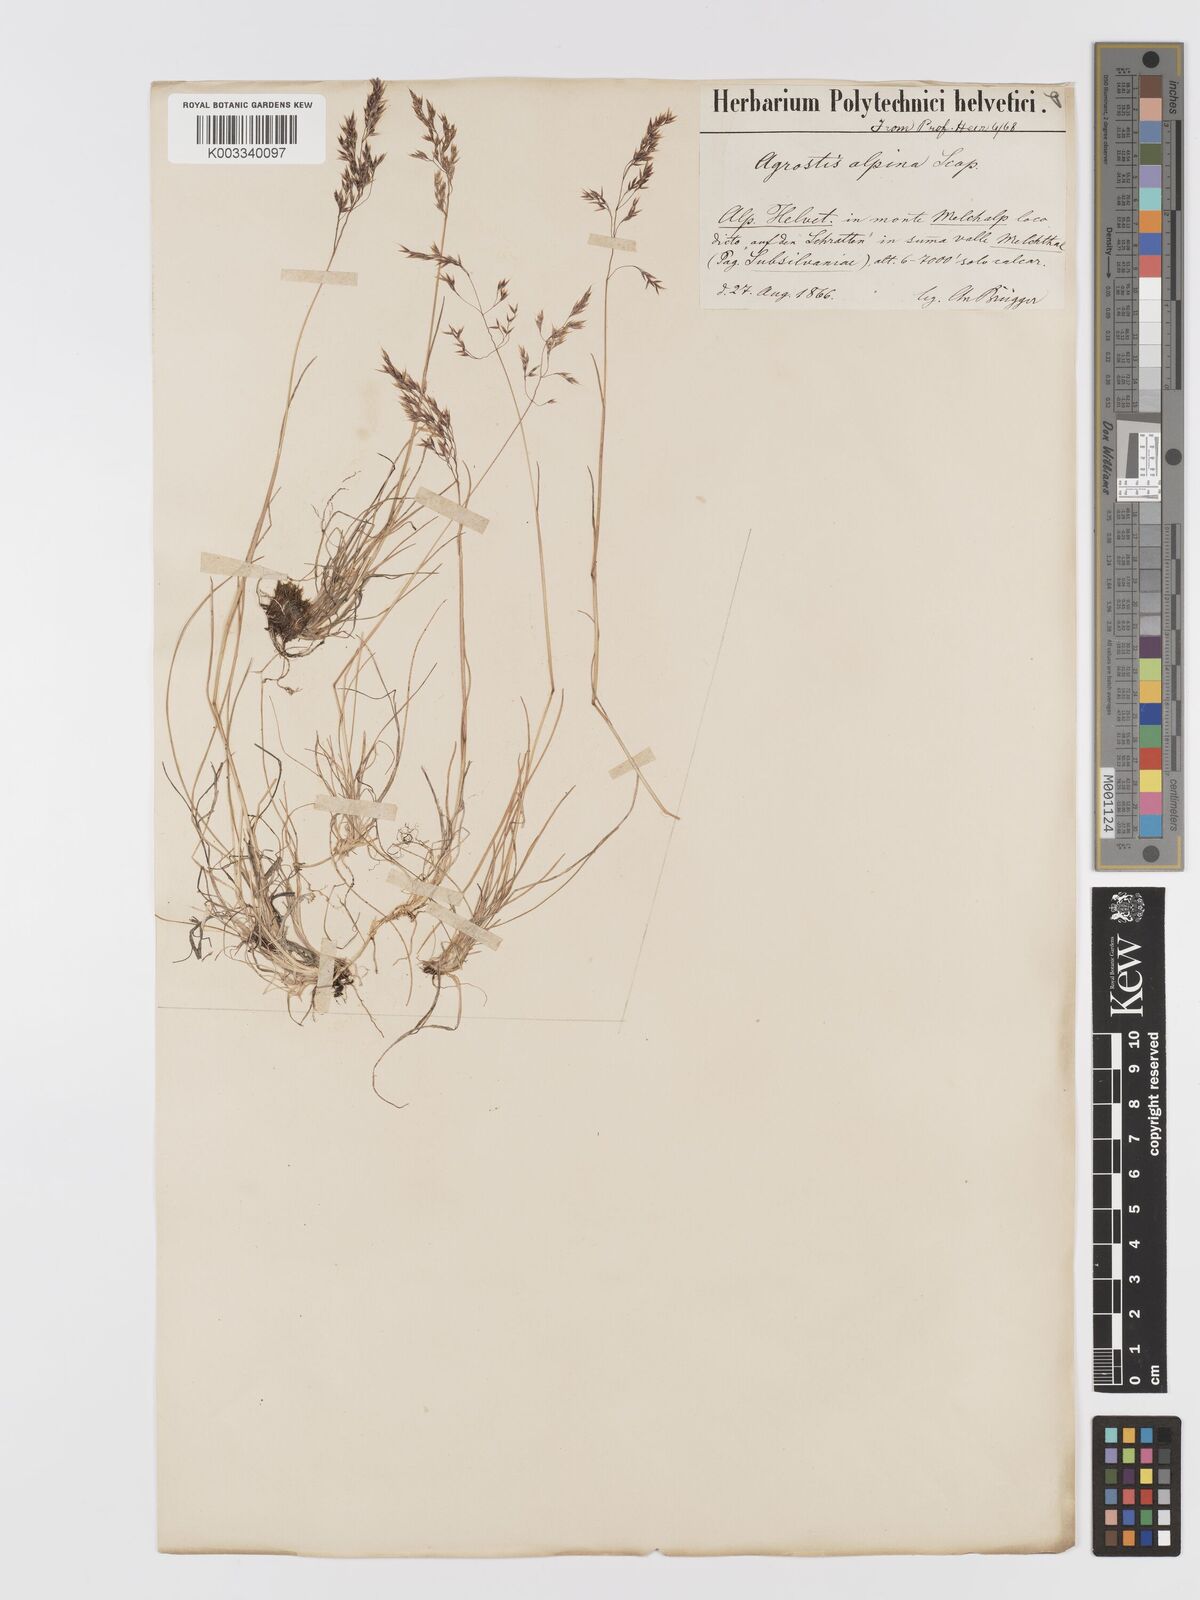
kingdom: Plantae
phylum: Tracheophyta
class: Liliopsida
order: Poales
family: Poaceae
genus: Agrostis
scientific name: Agrostis rupestris
